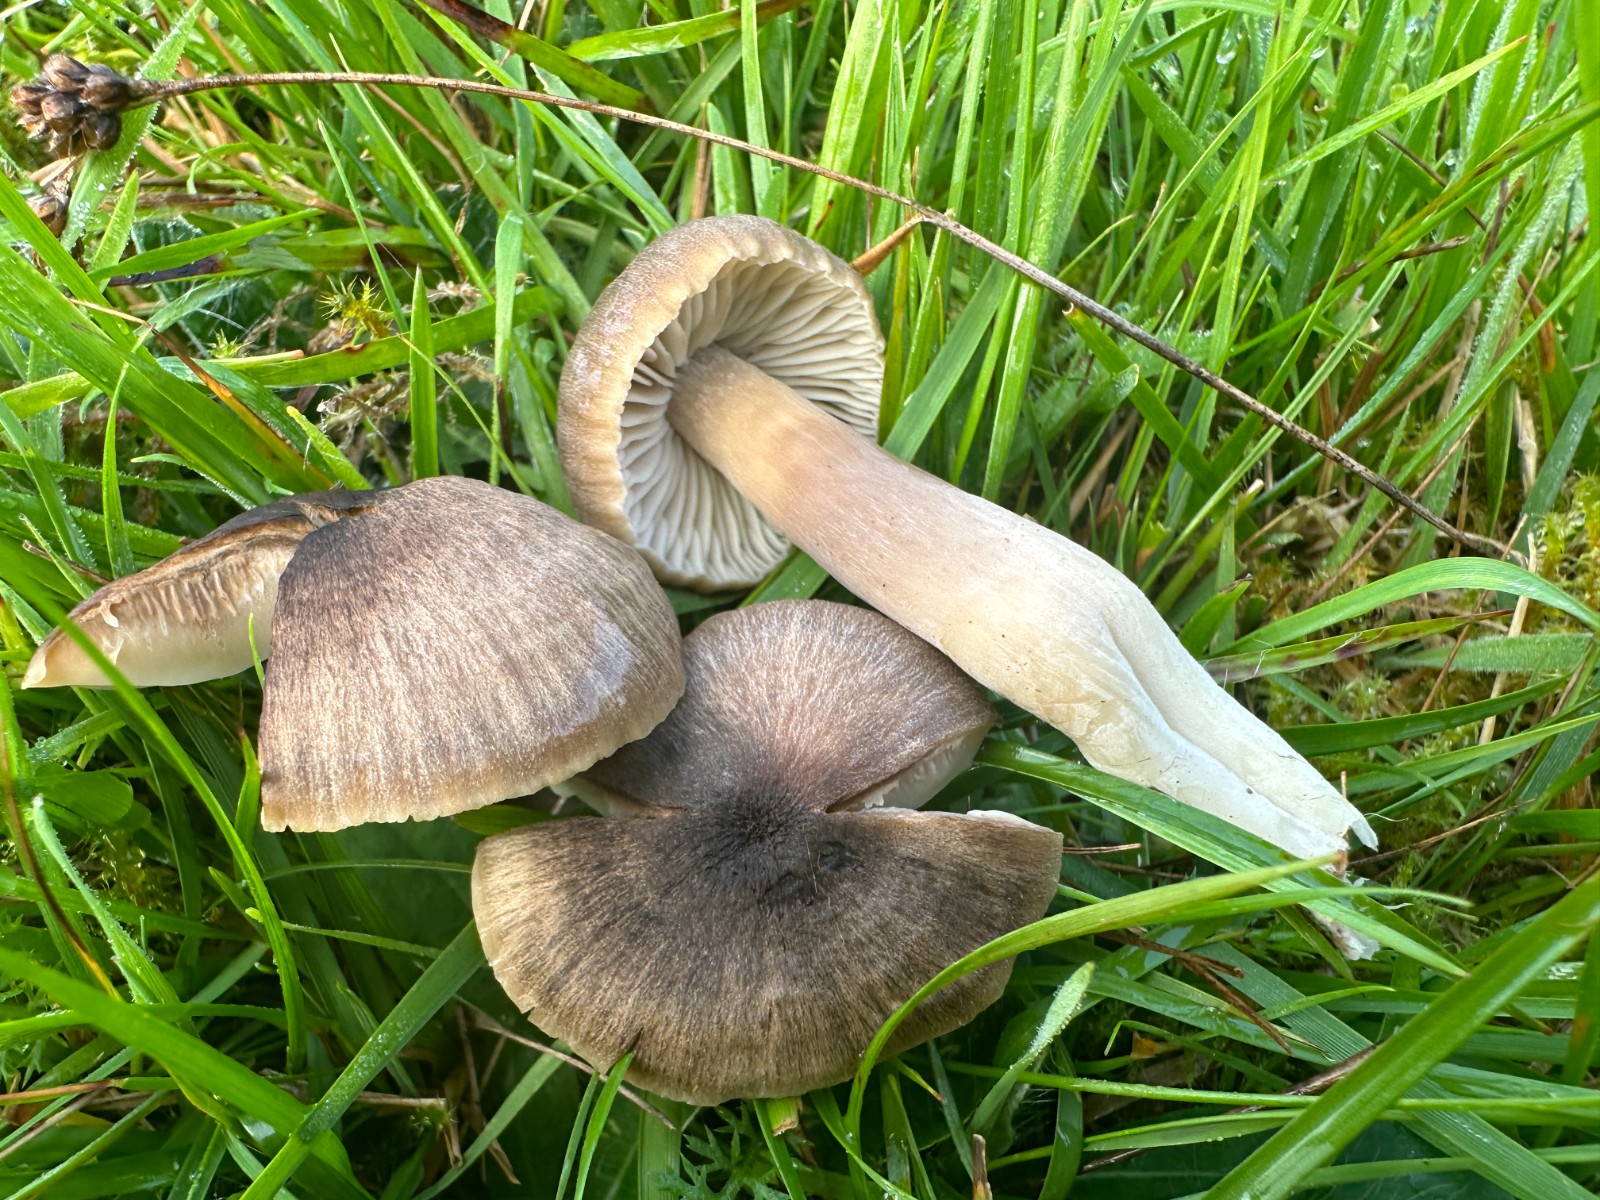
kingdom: Fungi
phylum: Basidiomycota
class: Agaricomycetes
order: Agaricales
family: Hygrophoraceae
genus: Neohygrocybe
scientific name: Neohygrocybe nitrata
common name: stinkende vokshat
